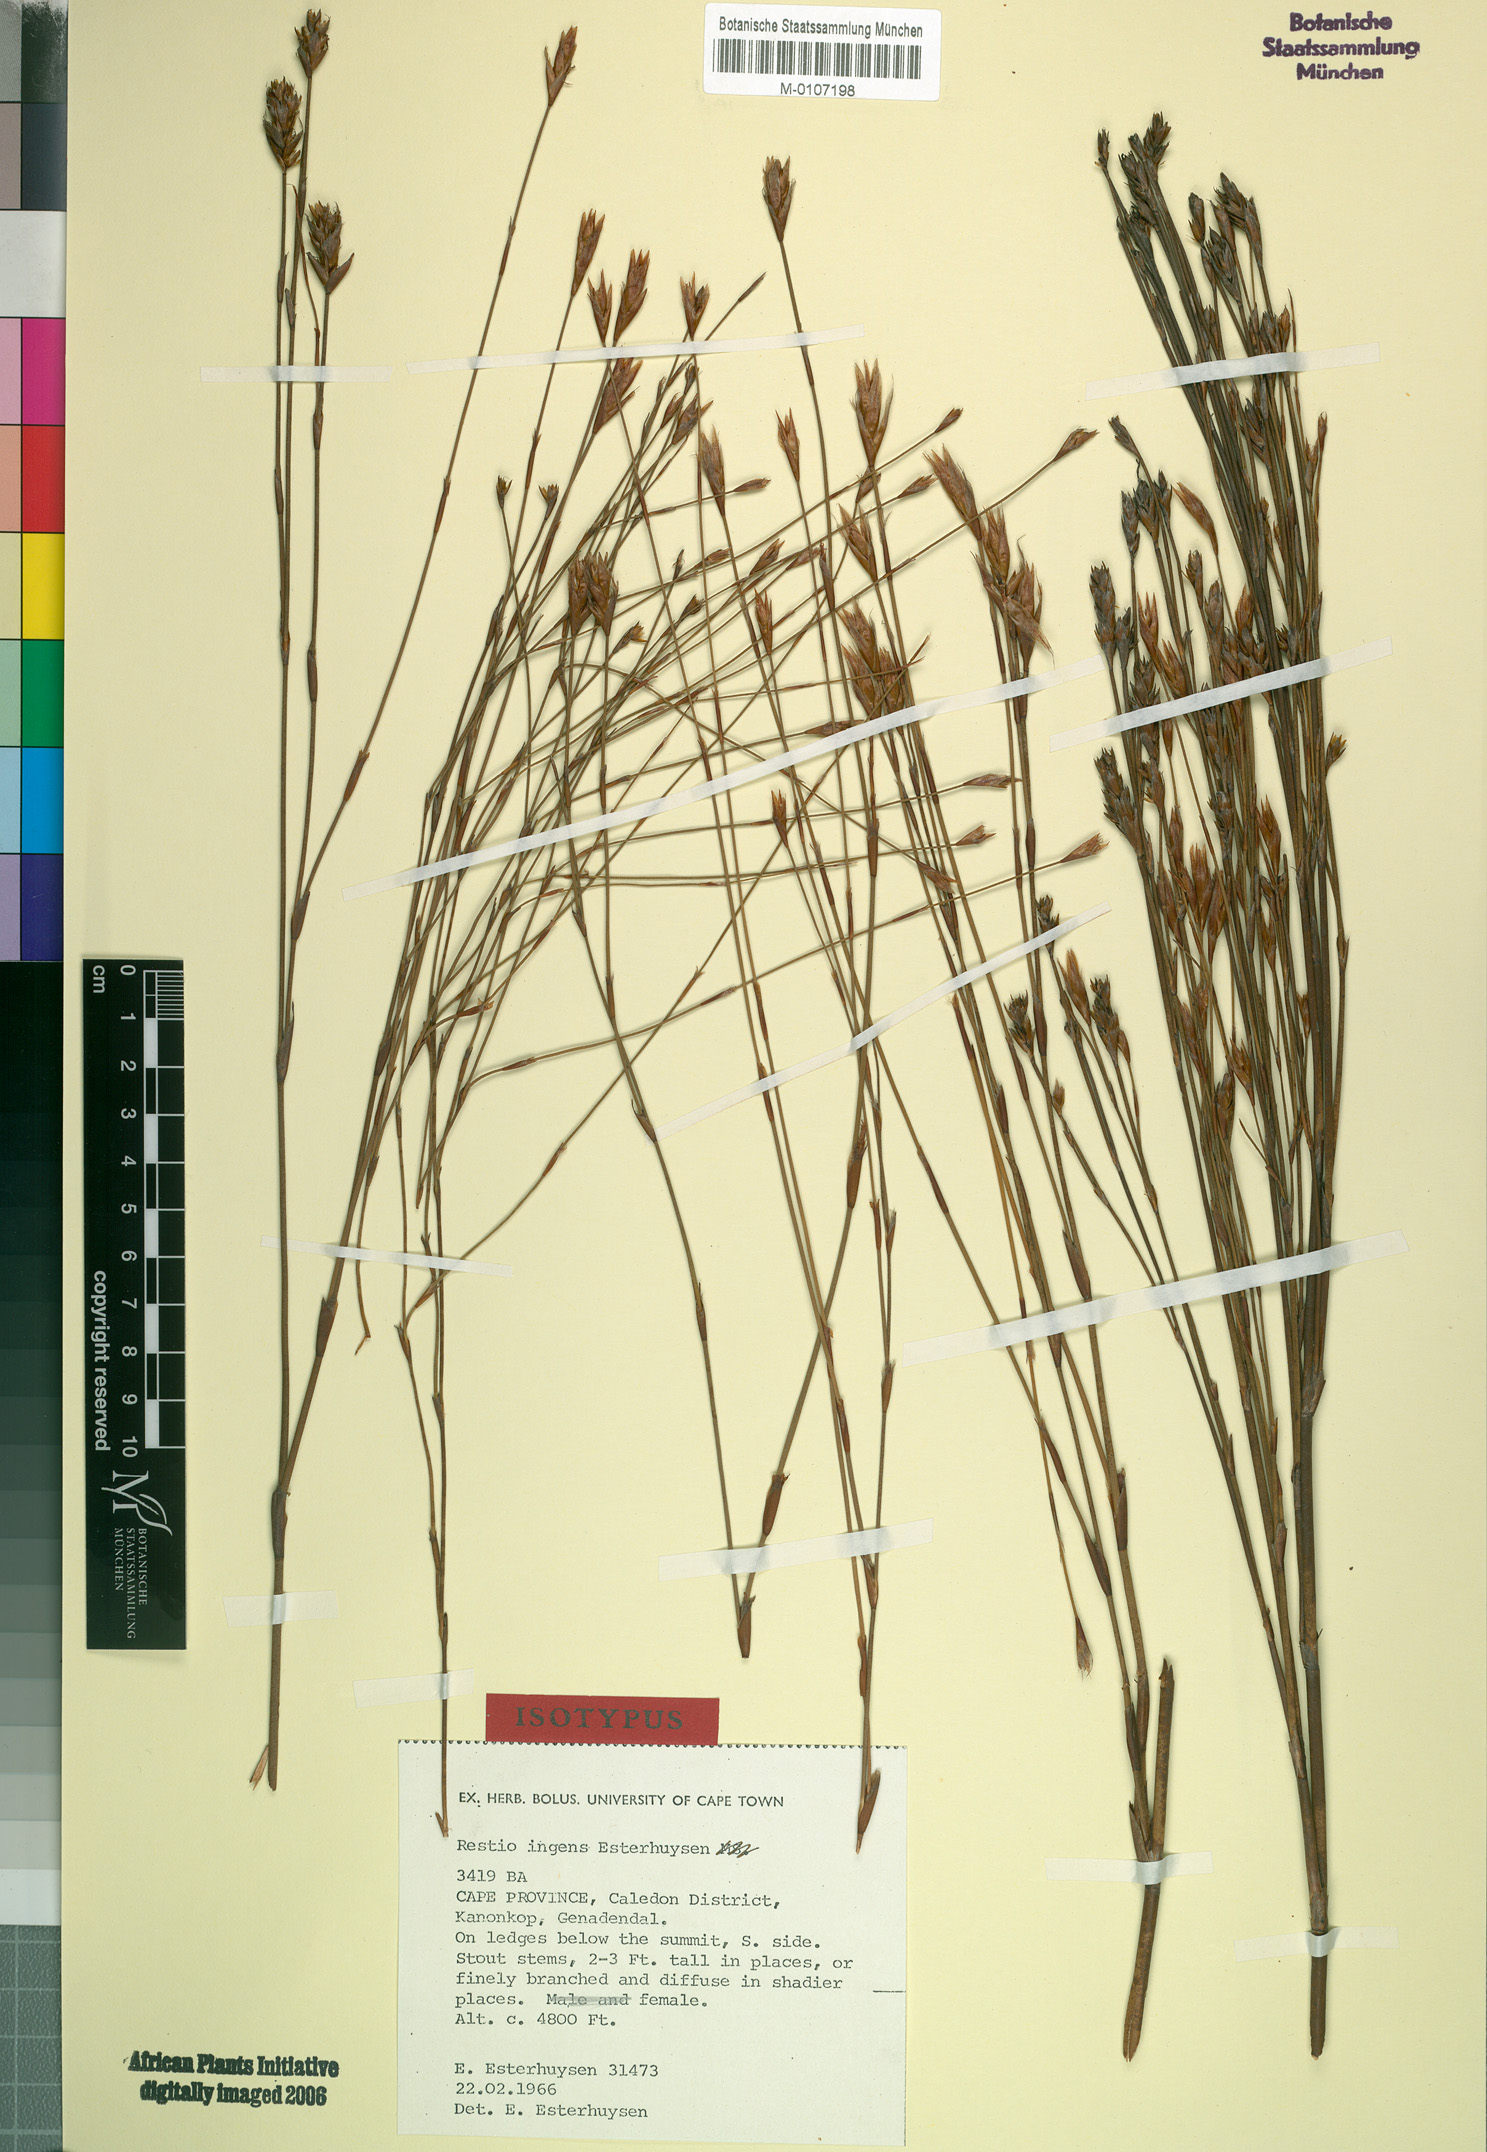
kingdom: Plantae
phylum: Tracheophyta
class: Liliopsida
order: Poales
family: Restionaceae
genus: Restio
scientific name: Restio ingens
